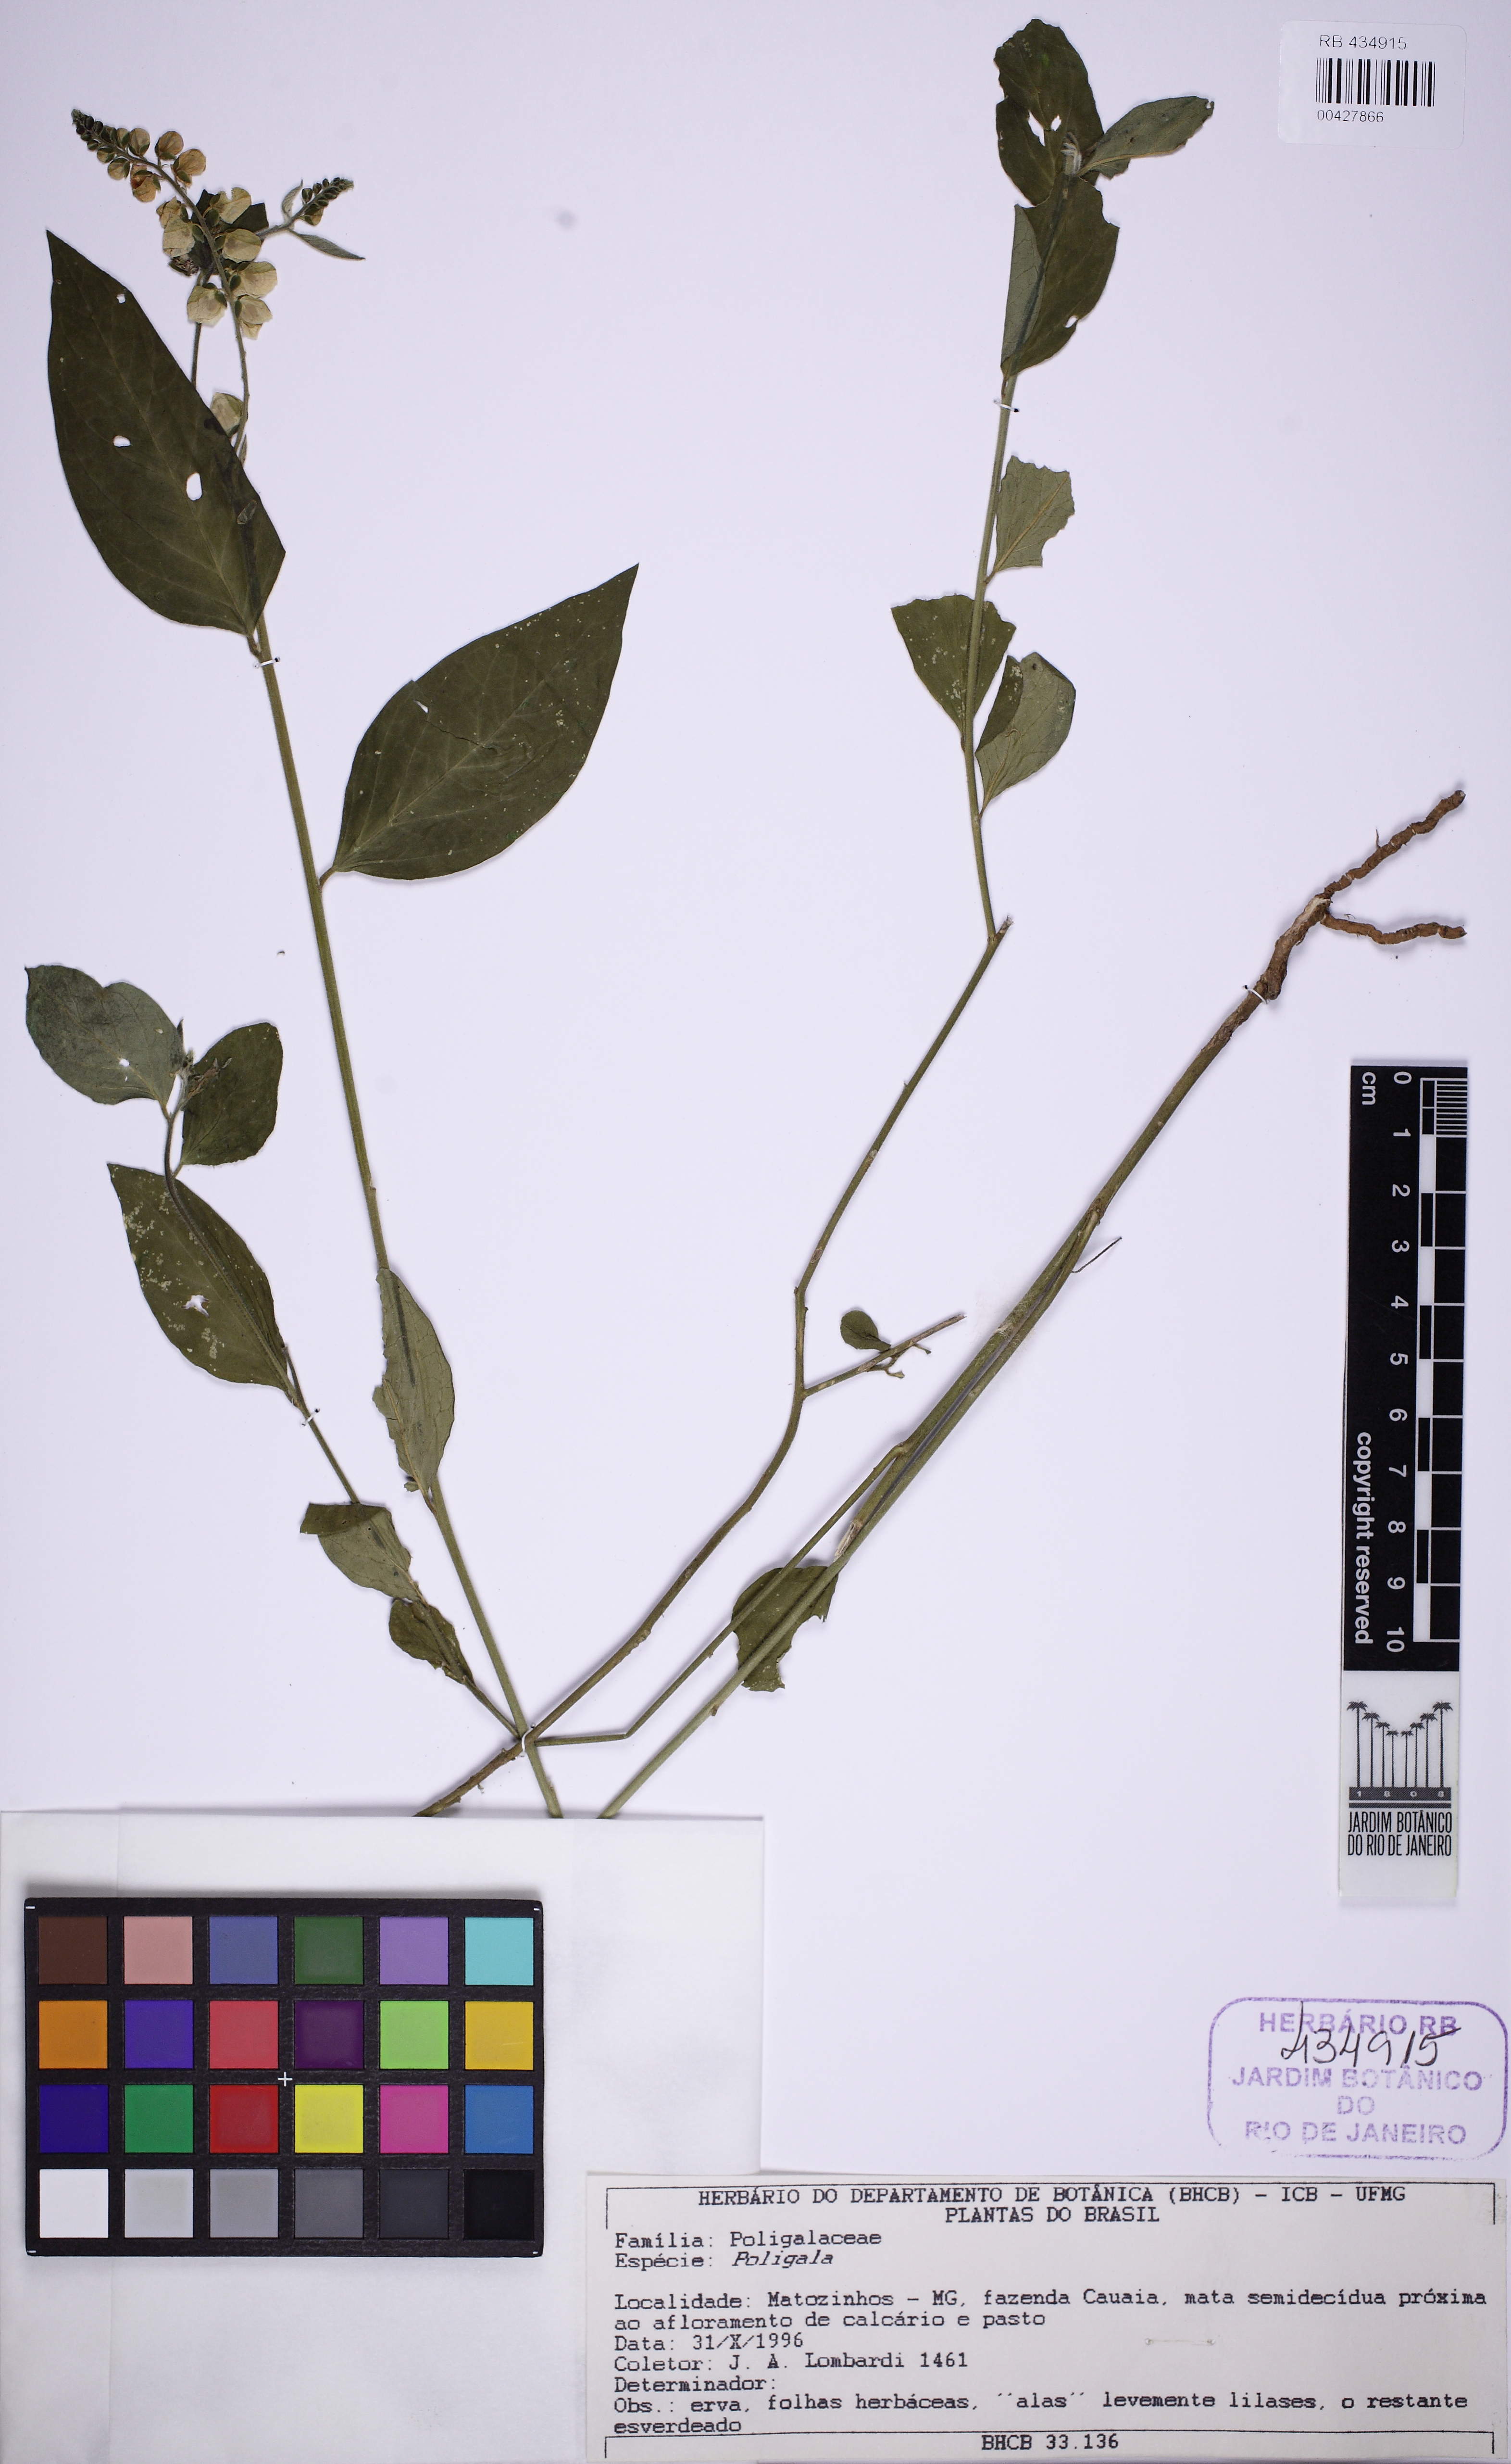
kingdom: Plantae
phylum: Tracheophyta
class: Magnoliopsida
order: Fabales
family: Polygalaceae
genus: Asemeia
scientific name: Asemeia
